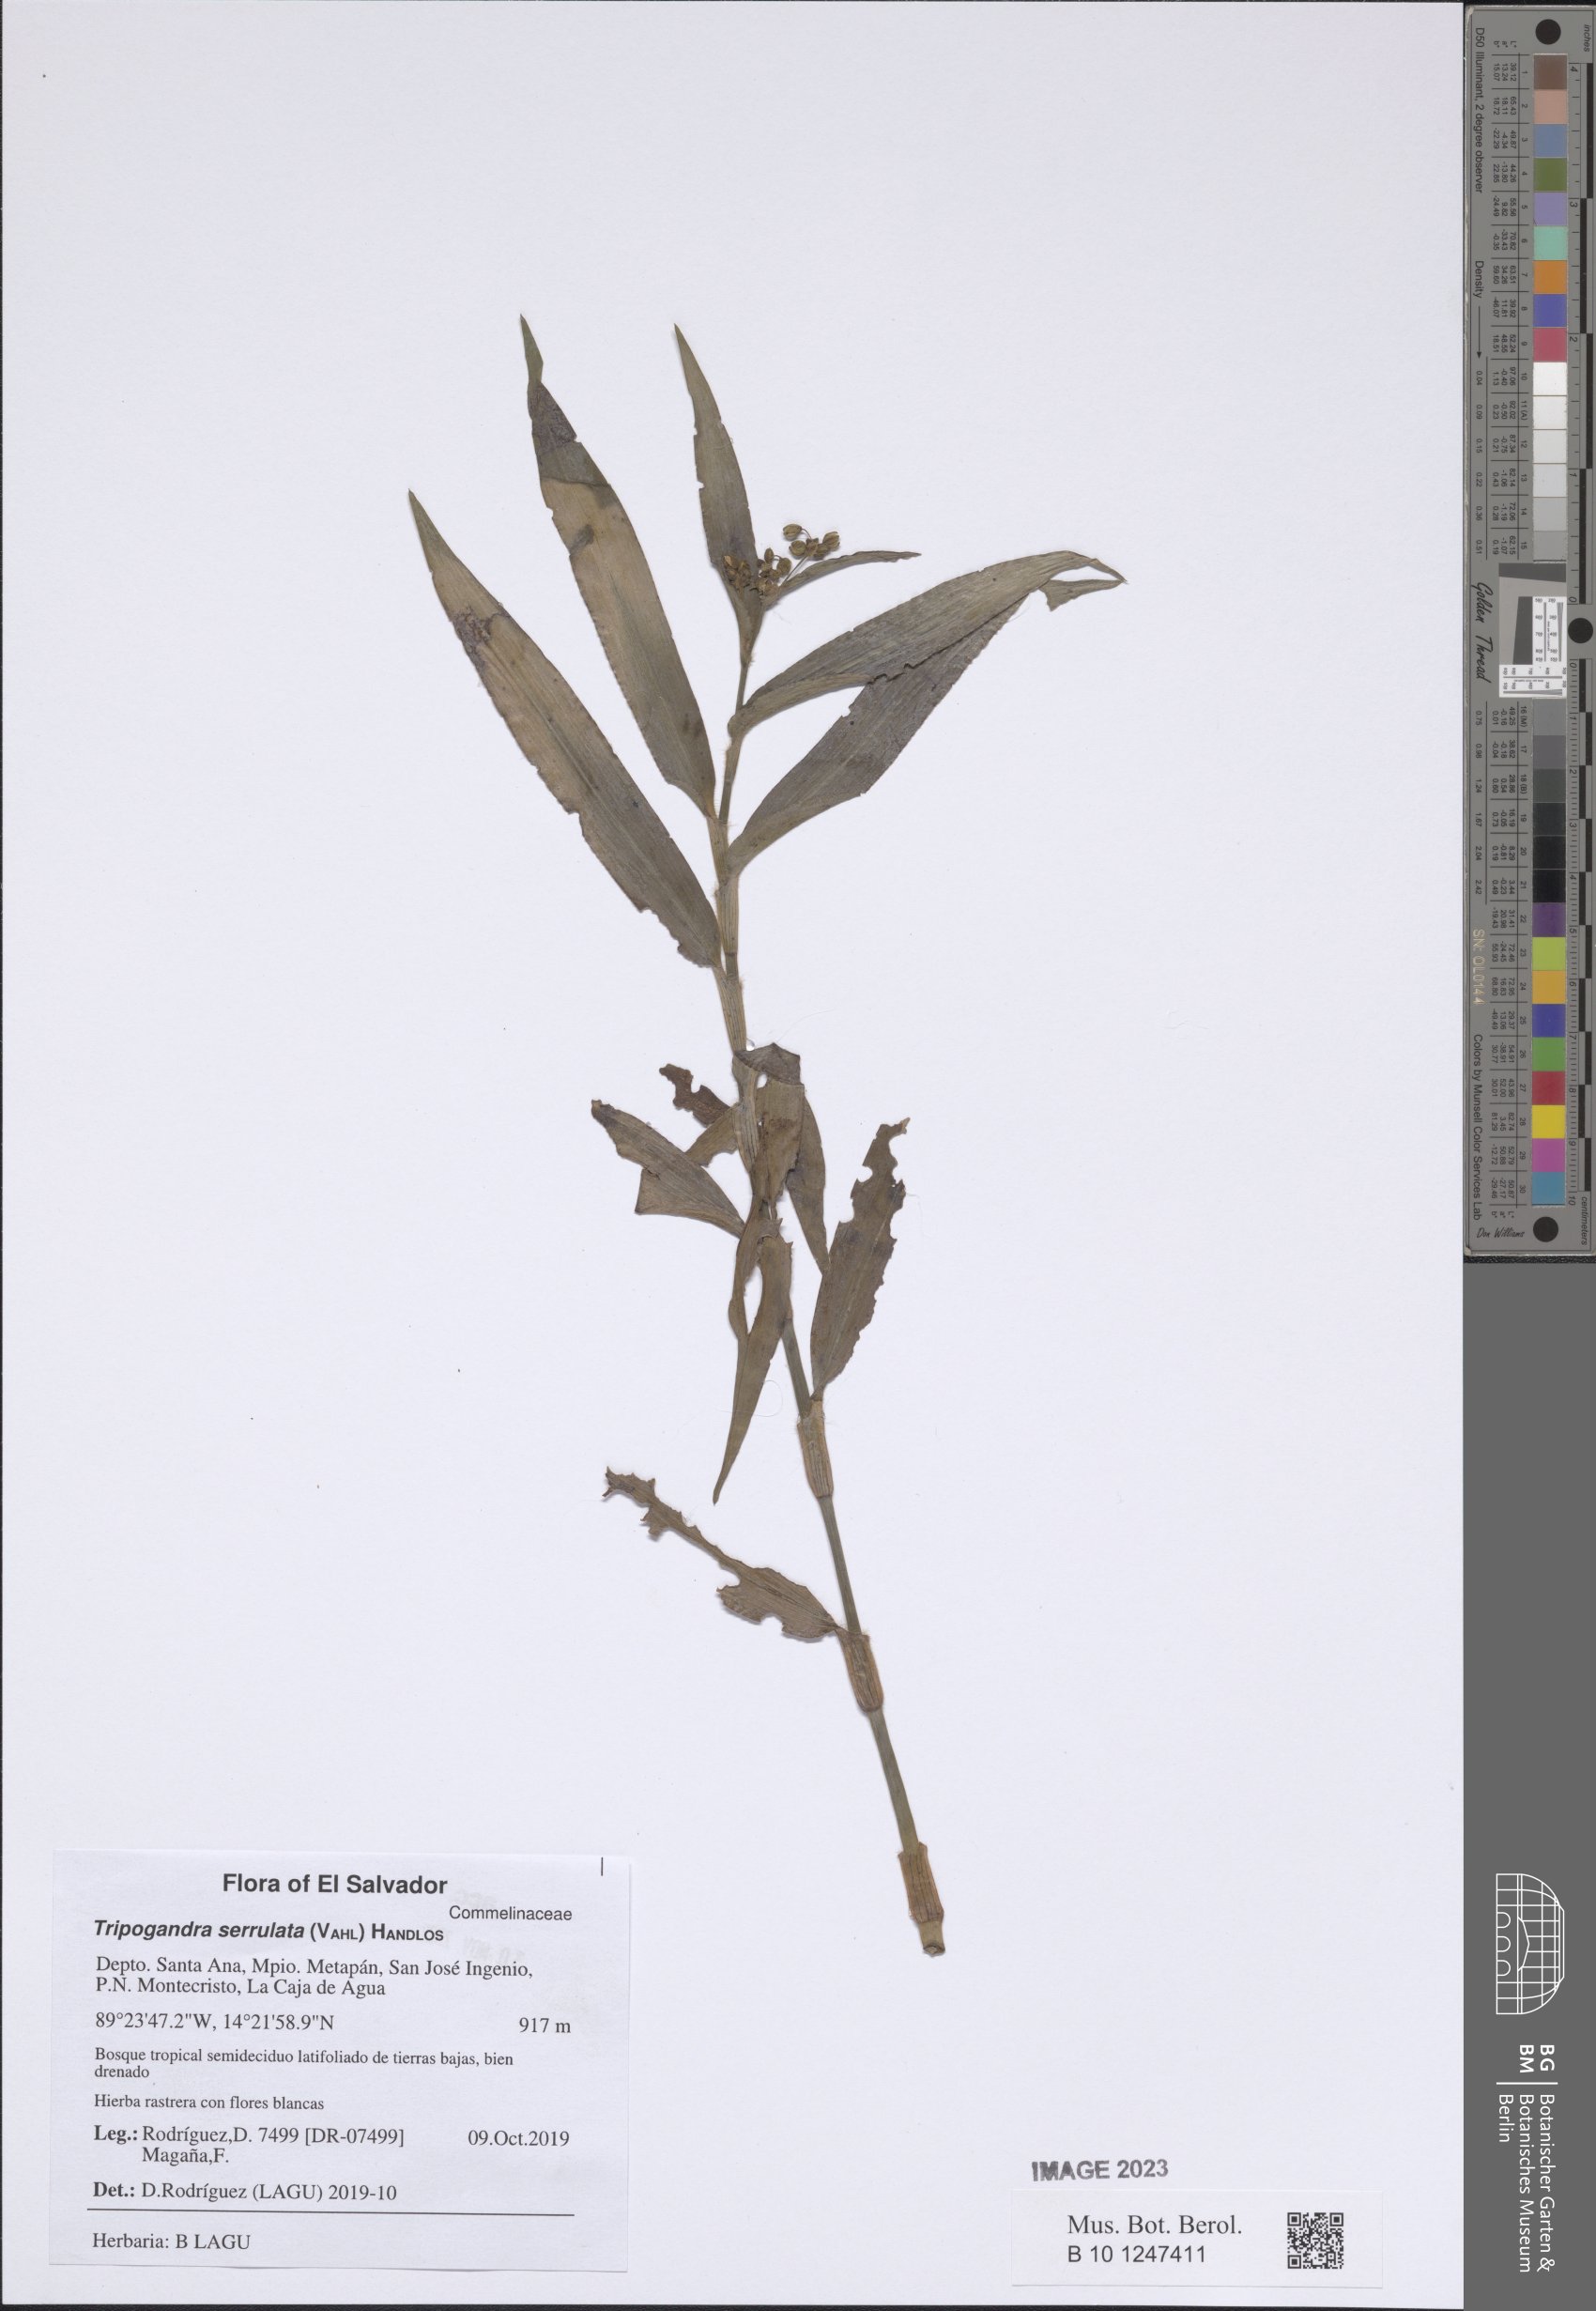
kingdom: Plantae
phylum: Tracheophyta
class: Liliopsida
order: Commelinales
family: Commelinaceae
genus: Callisia
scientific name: Callisia serrulata
